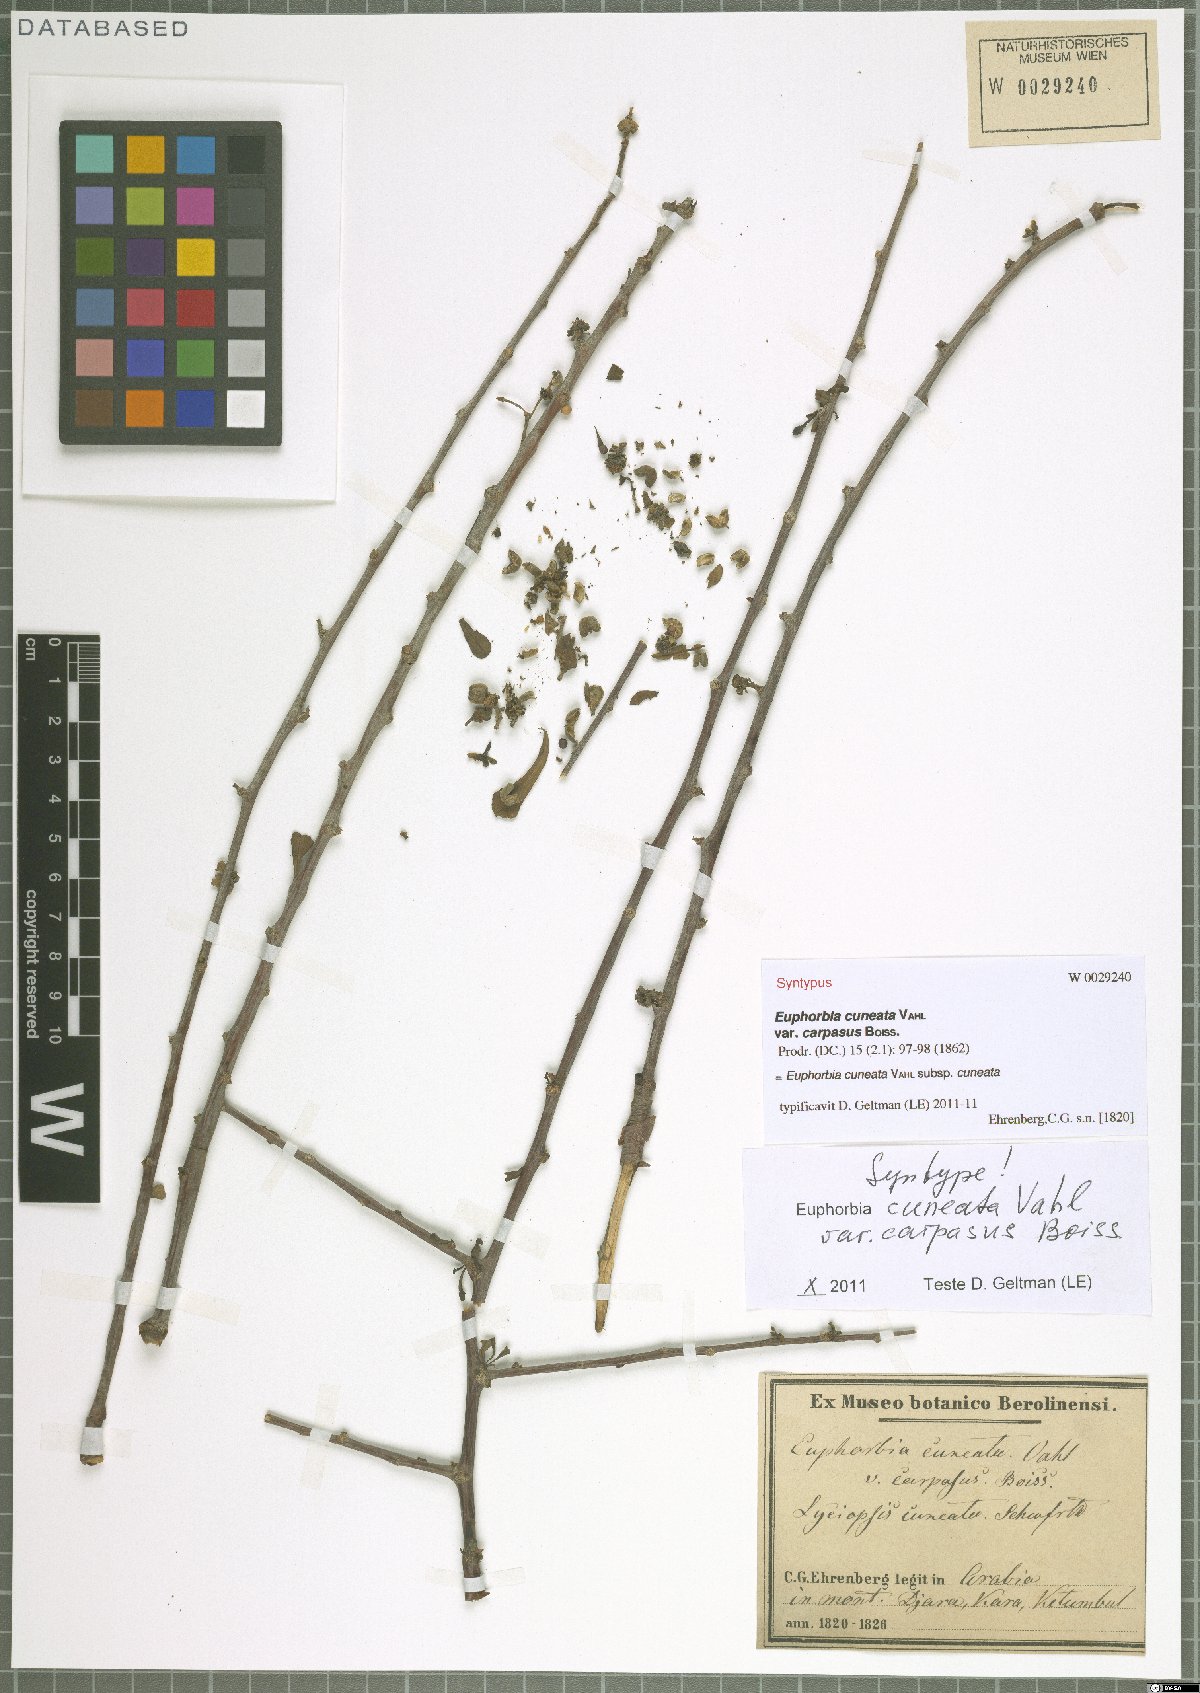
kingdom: Plantae
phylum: Tracheophyta
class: Magnoliopsida
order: Malpighiales
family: Euphorbiaceae
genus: Euphorbia
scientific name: Euphorbia cuneata
